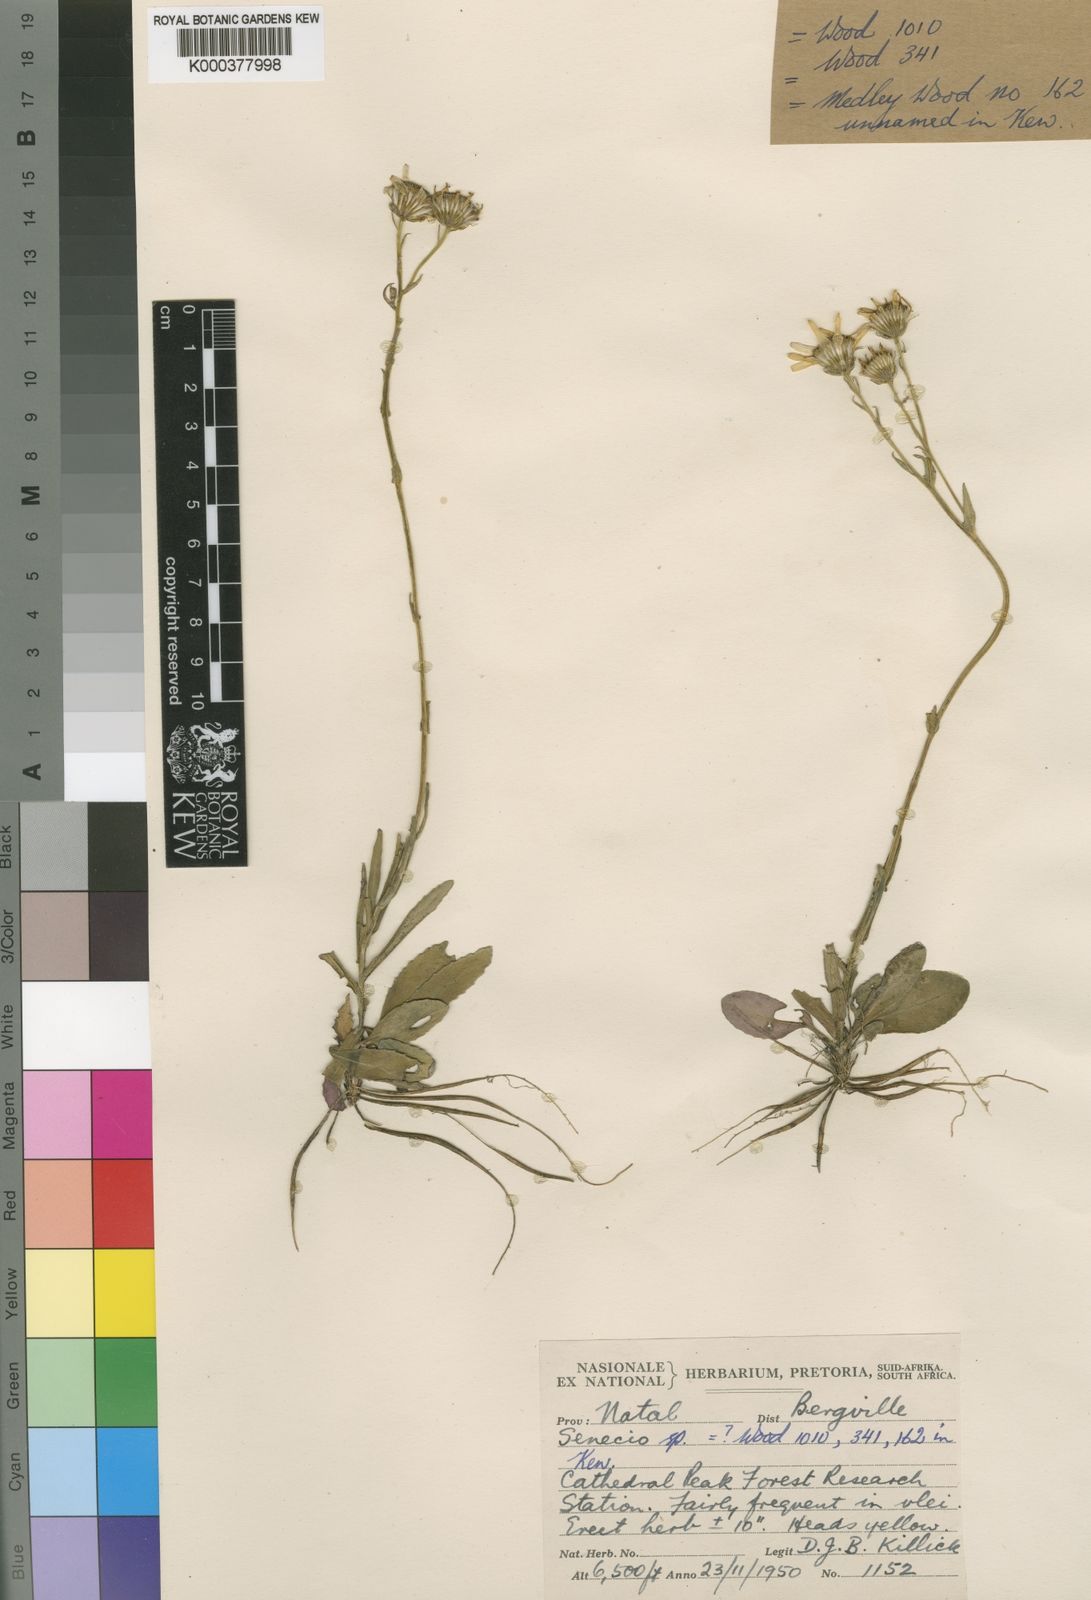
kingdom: Plantae
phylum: Tracheophyta
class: Magnoliopsida
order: Asterales
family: Asteraceae
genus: Senecio
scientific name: Senecio brevidentatus
